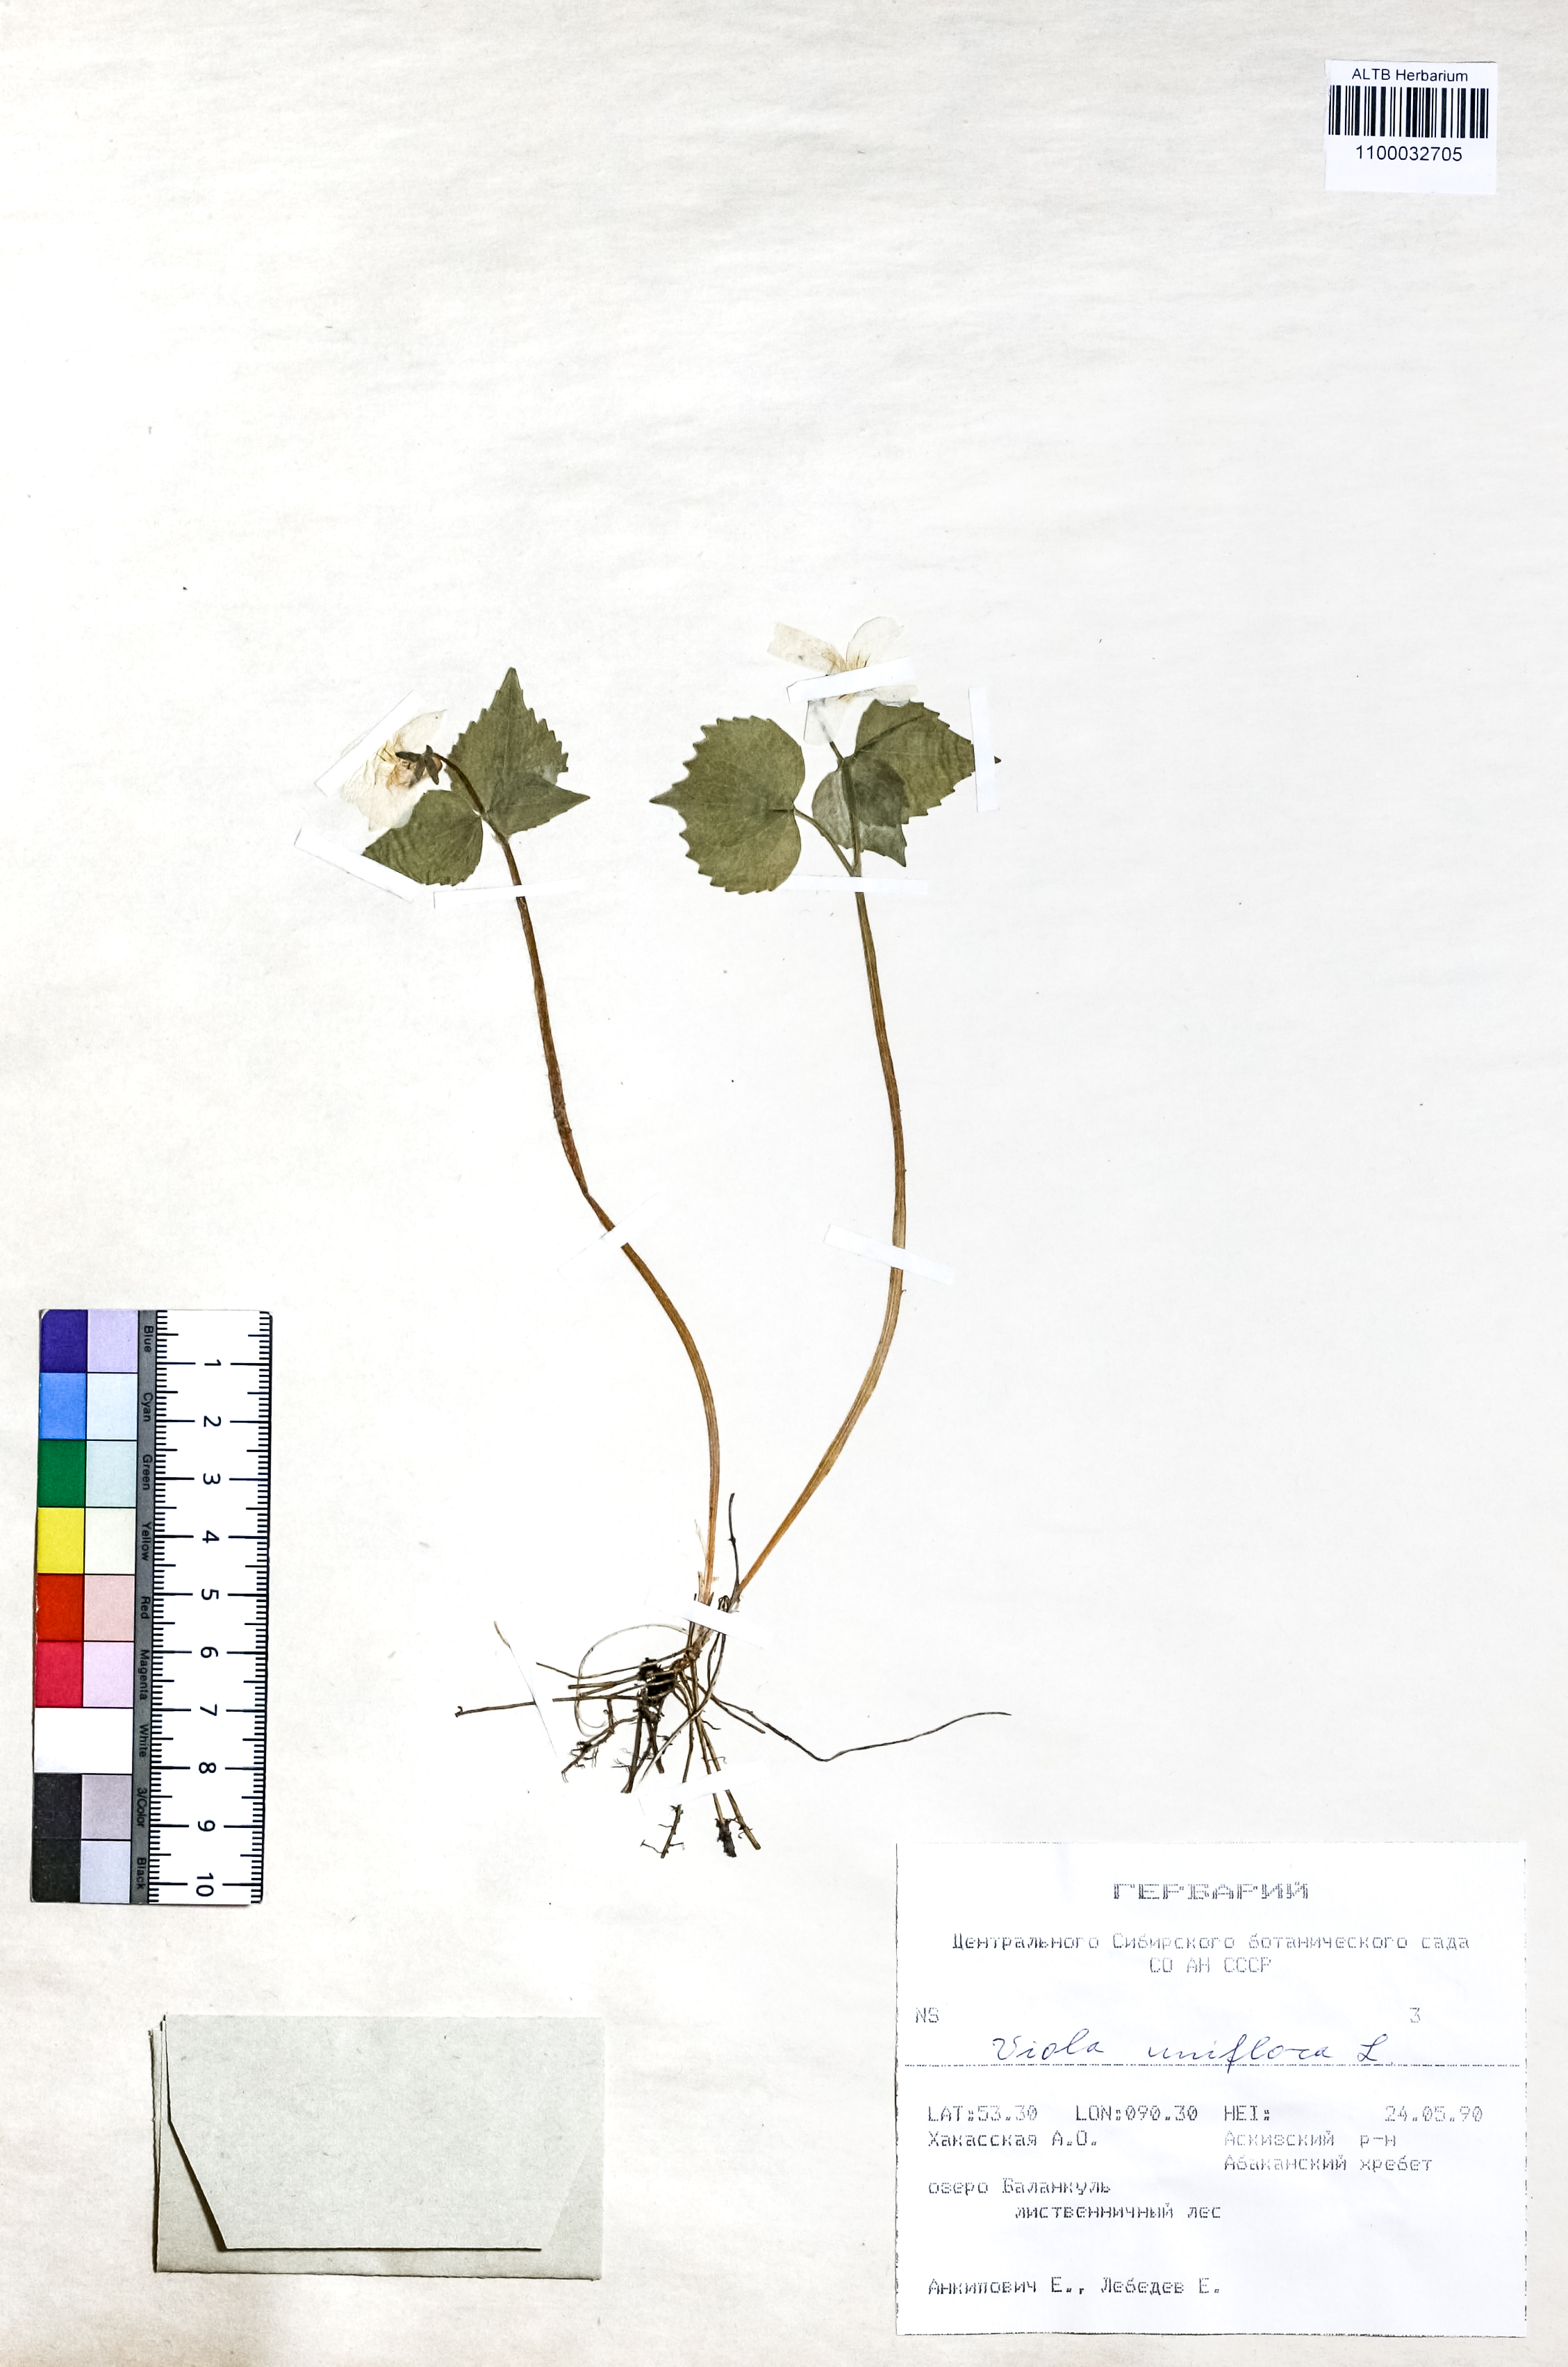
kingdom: Plantae
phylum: Tracheophyta
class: Magnoliopsida
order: Malpighiales
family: Violaceae
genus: Viola
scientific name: Viola uniflora
